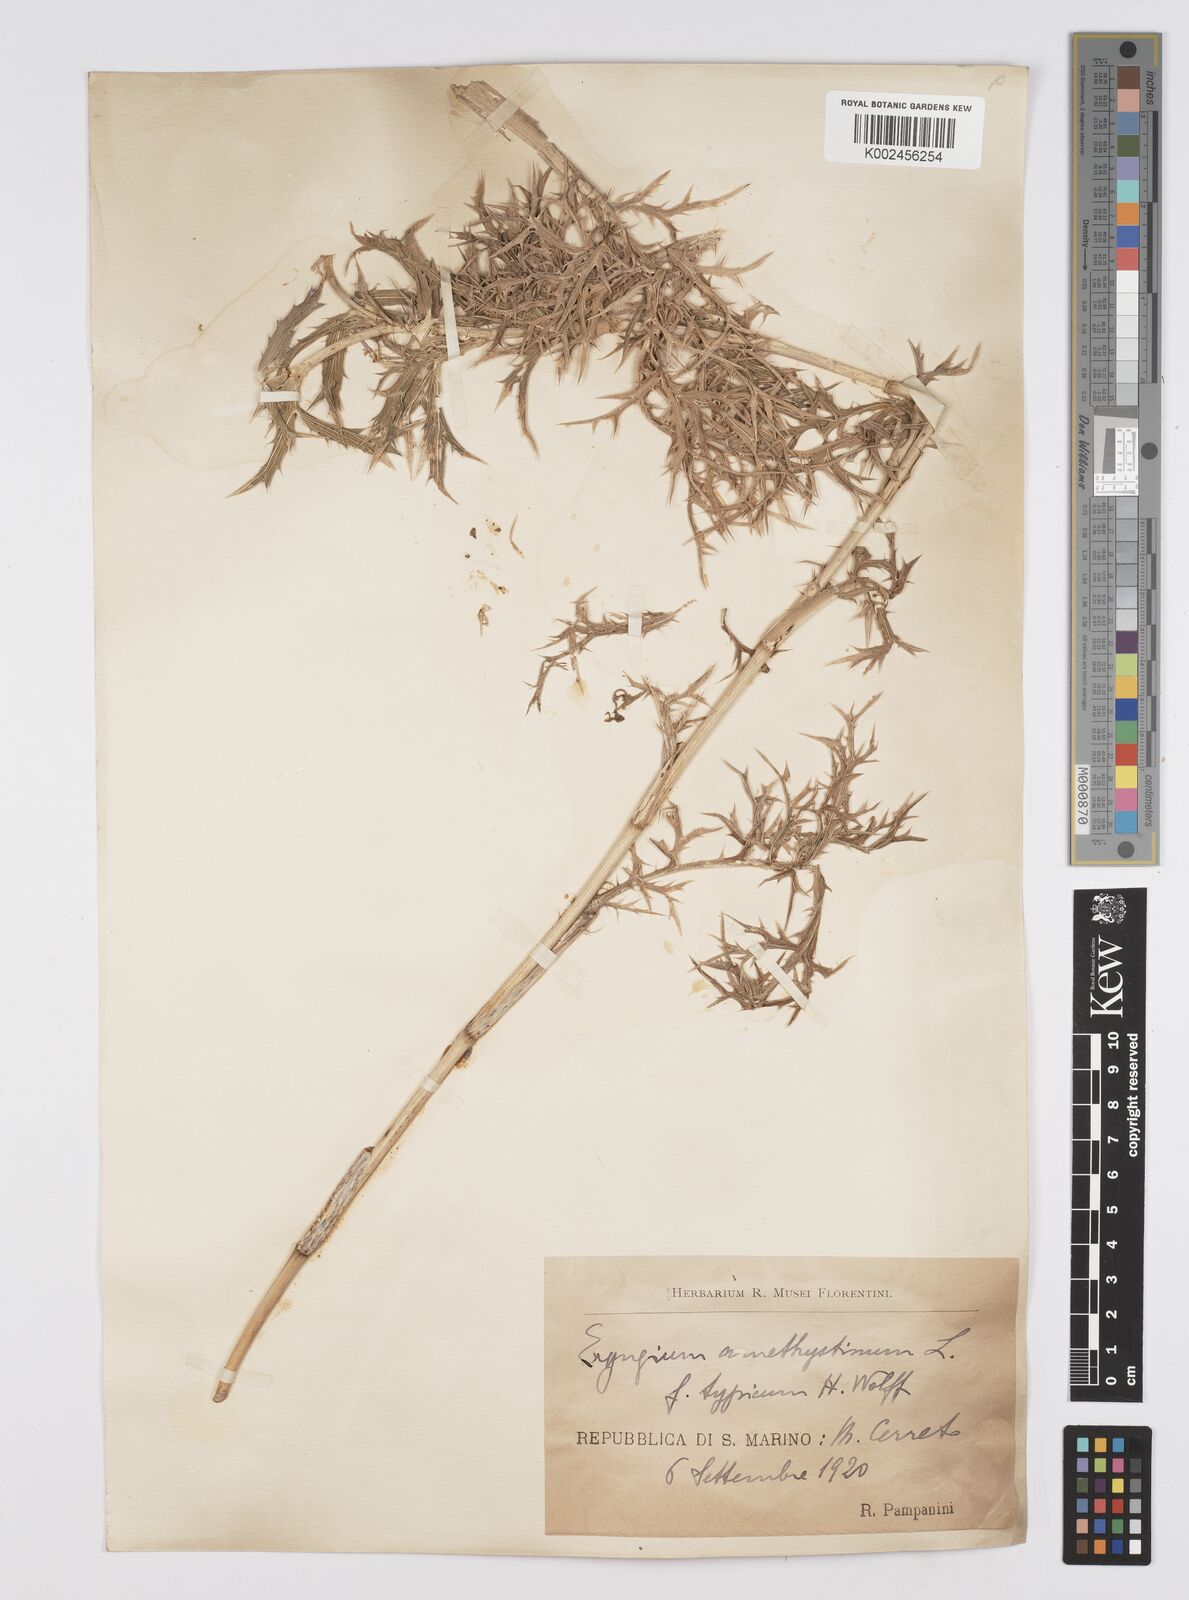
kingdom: Plantae
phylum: Tracheophyta
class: Magnoliopsida
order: Apiales
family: Apiaceae
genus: Eryngium
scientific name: Eryngium amethystinum
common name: Amethyst eryngo
